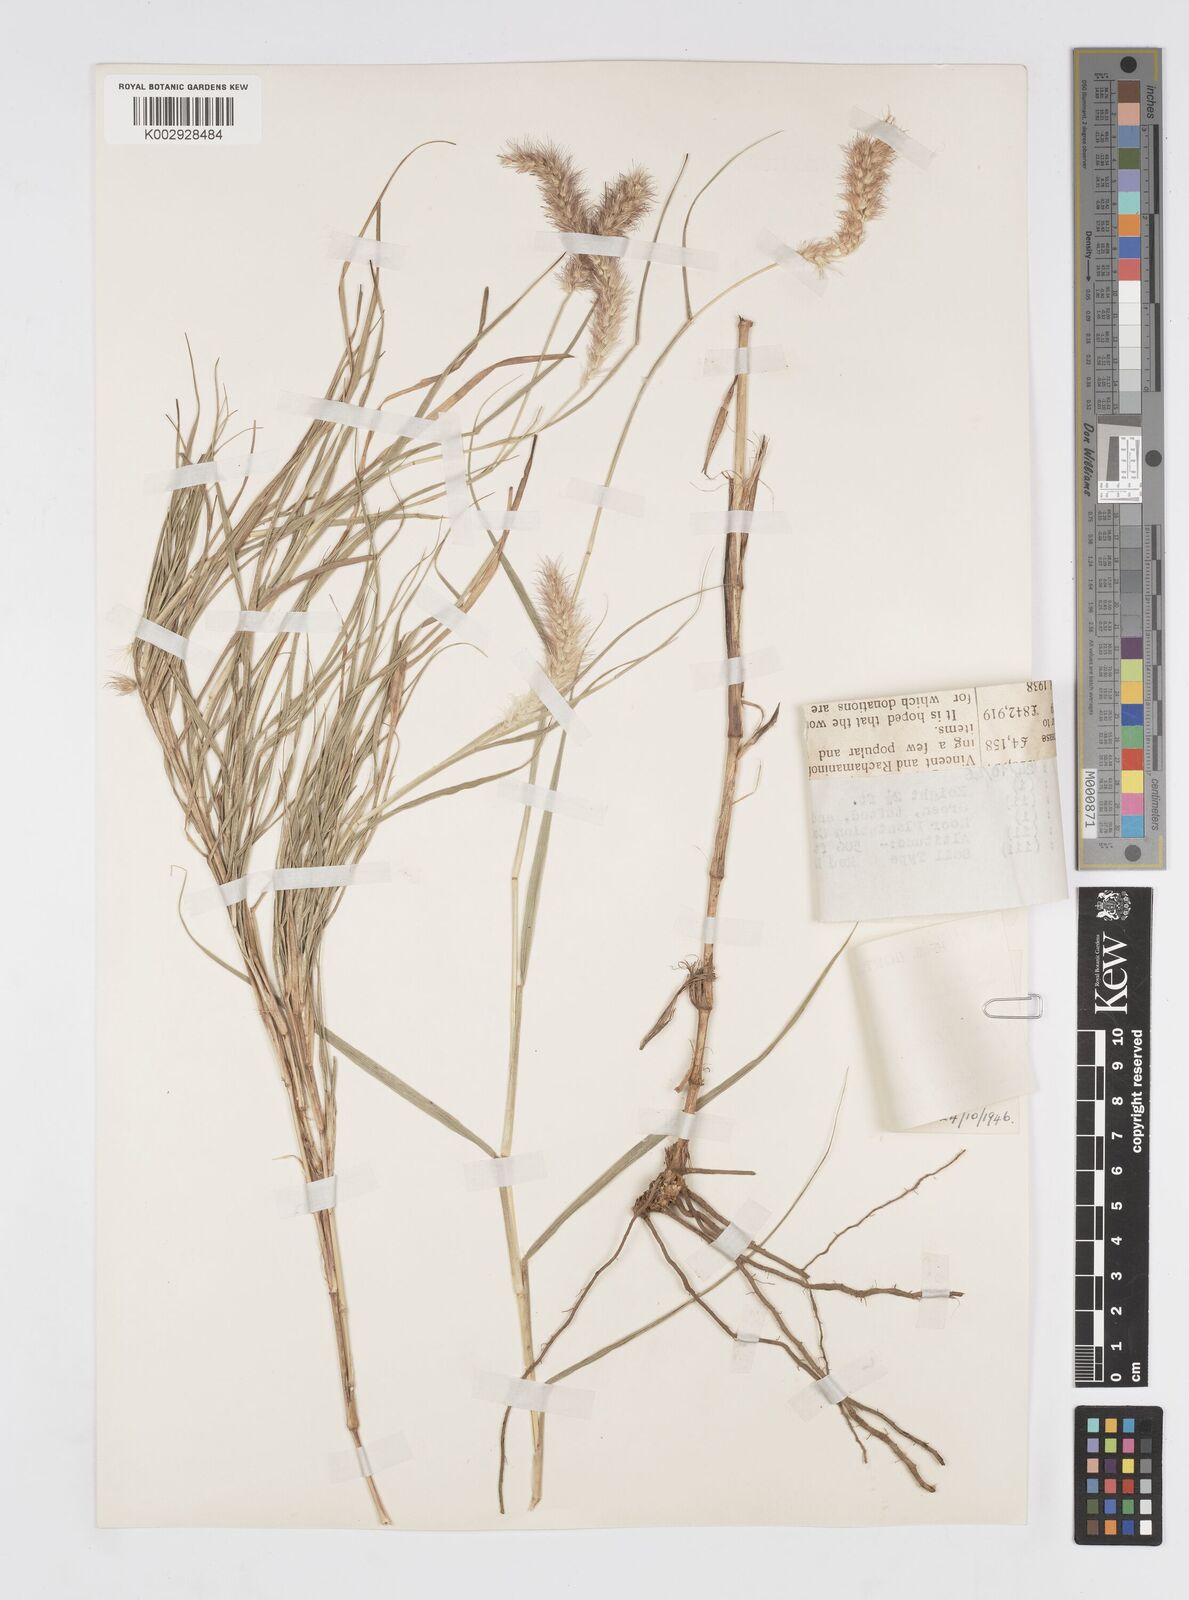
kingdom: Plantae
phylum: Tracheophyta
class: Liliopsida
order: Poales
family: Poaceae
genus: Cenchrus
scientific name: Cenchrus ciliaris
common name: Buffelgrass
